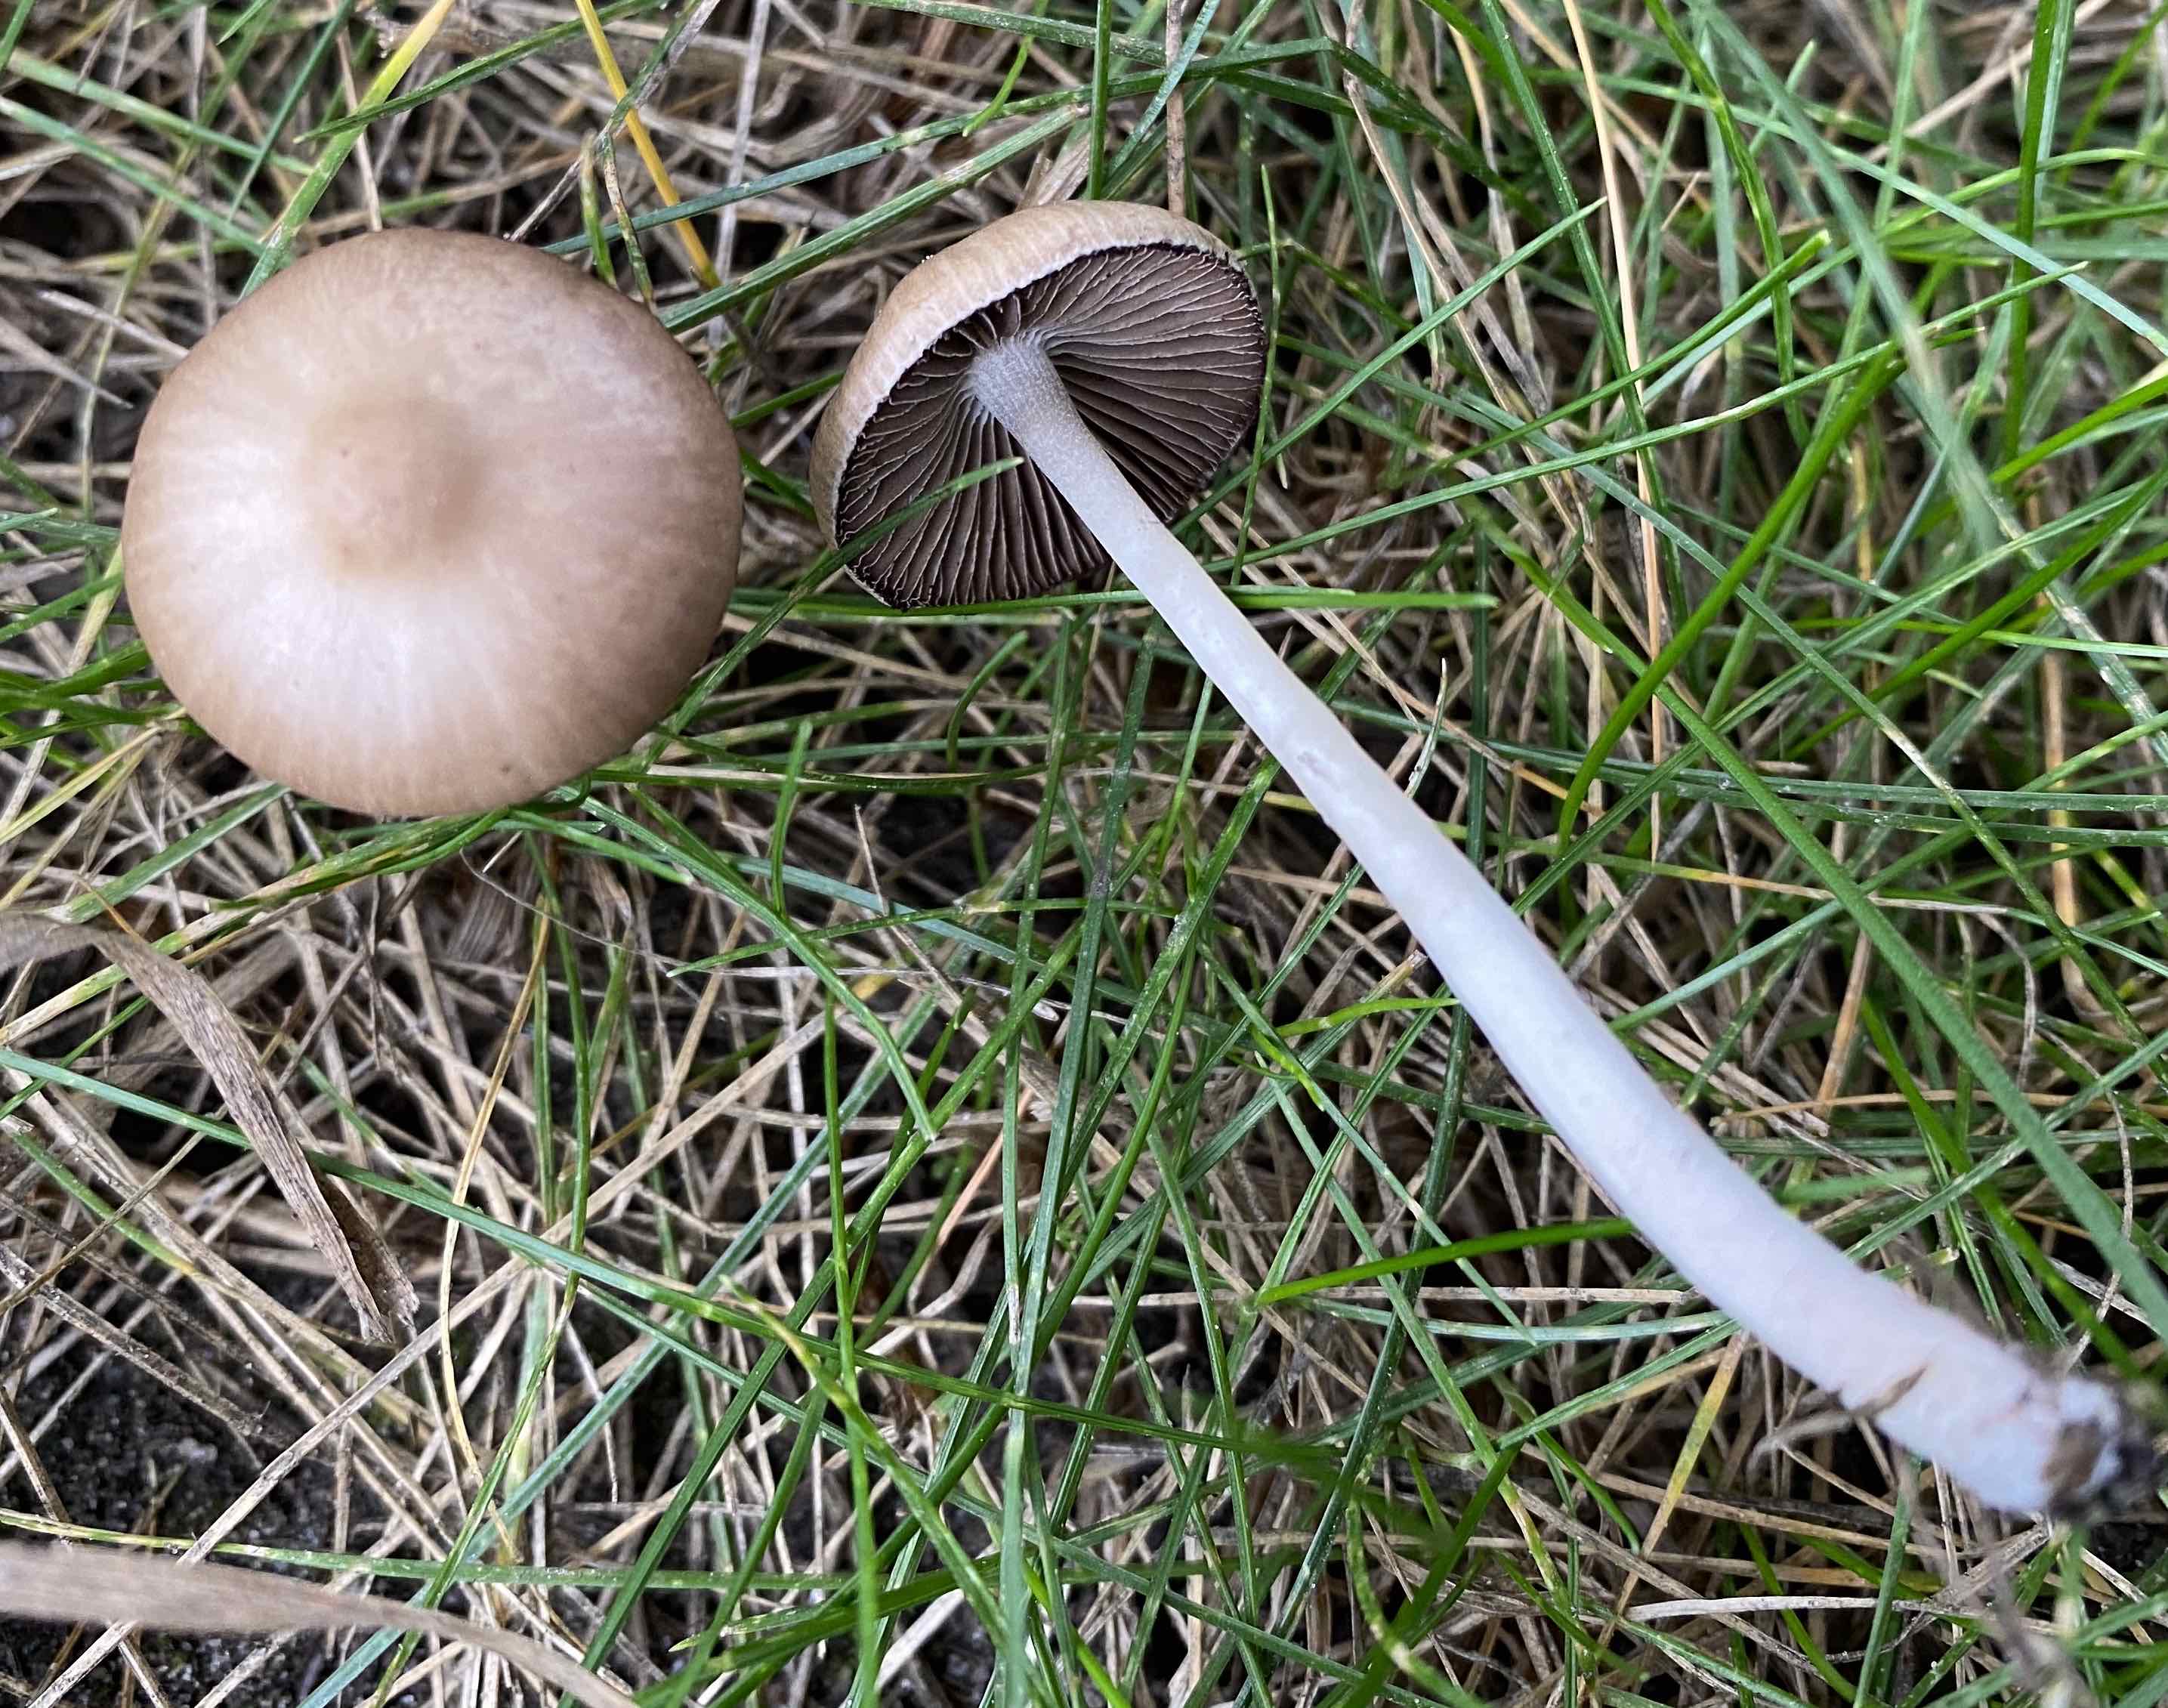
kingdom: Fungi
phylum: Basidiomycota
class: Agaricomycetes
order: Agaricales
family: Psathyrellaceae
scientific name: Psathyrellaceae
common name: mørkhatfamilien
